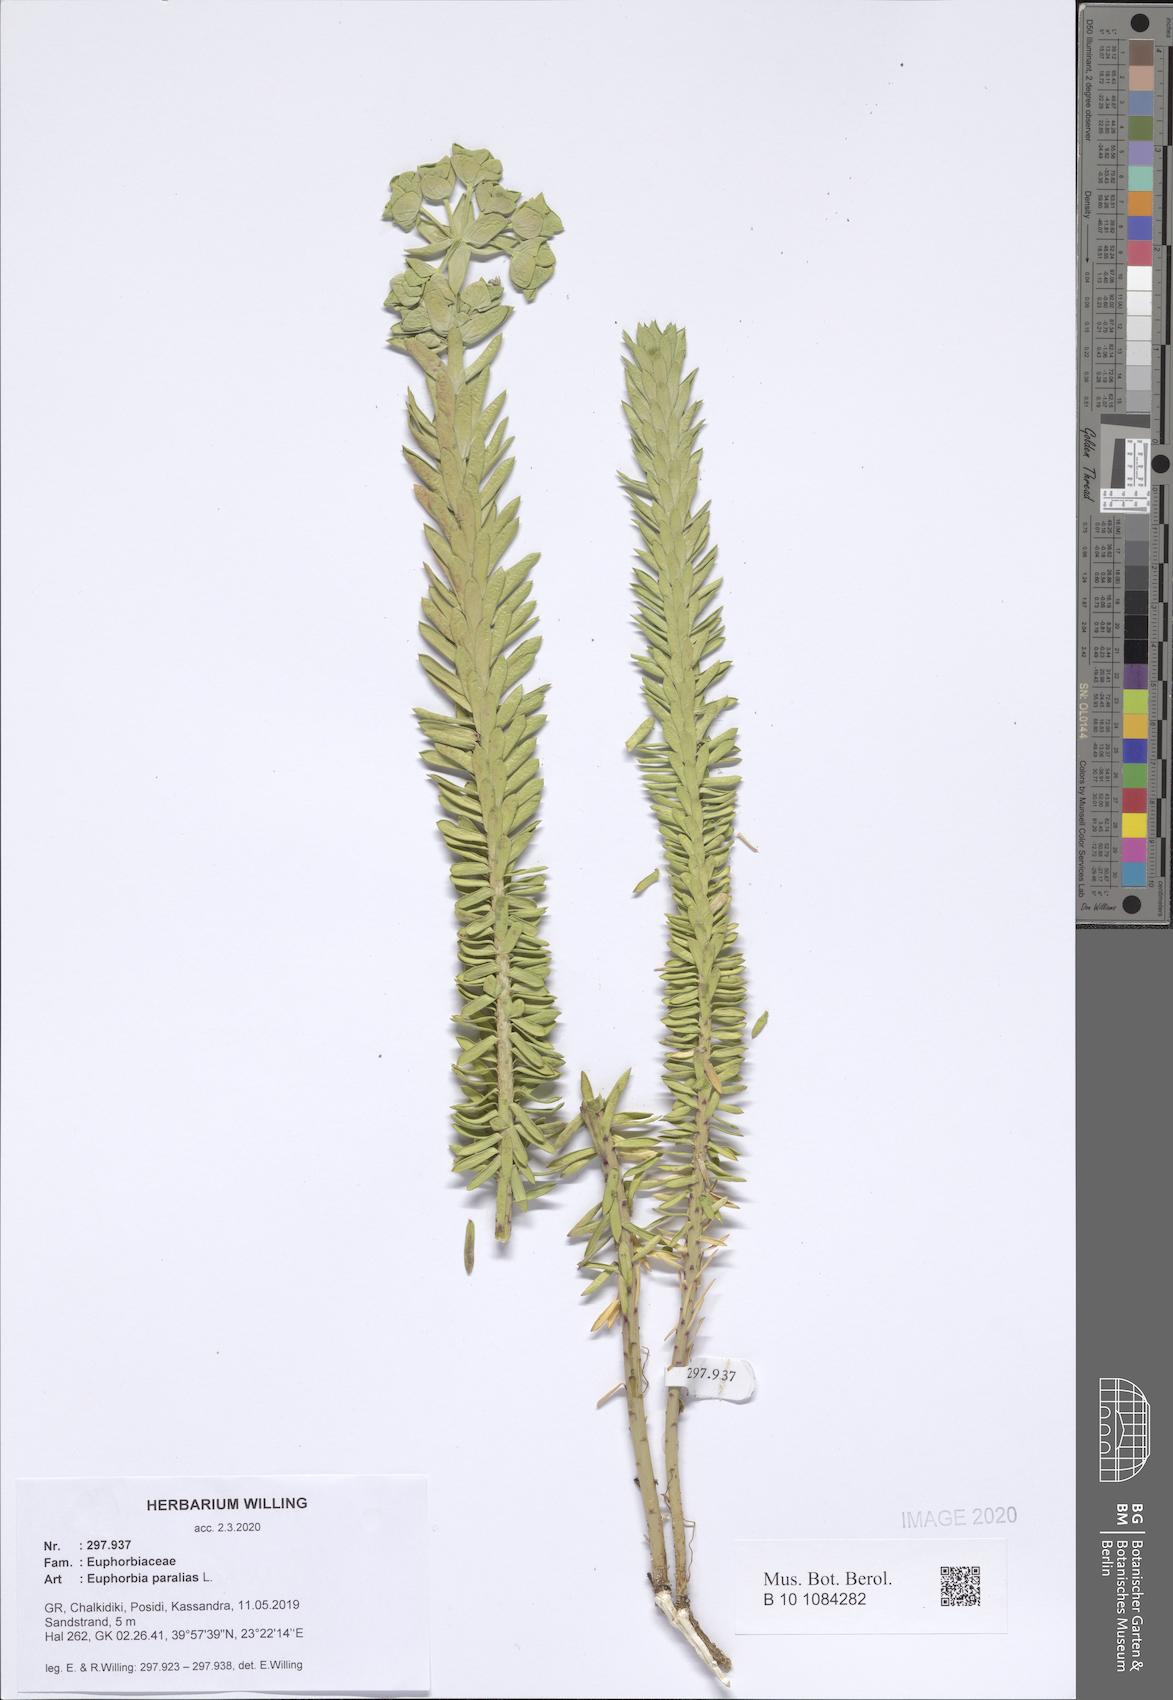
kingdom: Plantae
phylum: Tracheophyta
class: Magnoliopsida
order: Malpighiales
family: Euphorbiaceae
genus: Euphorbia
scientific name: Euphorbia paralias
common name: Sea spurge
